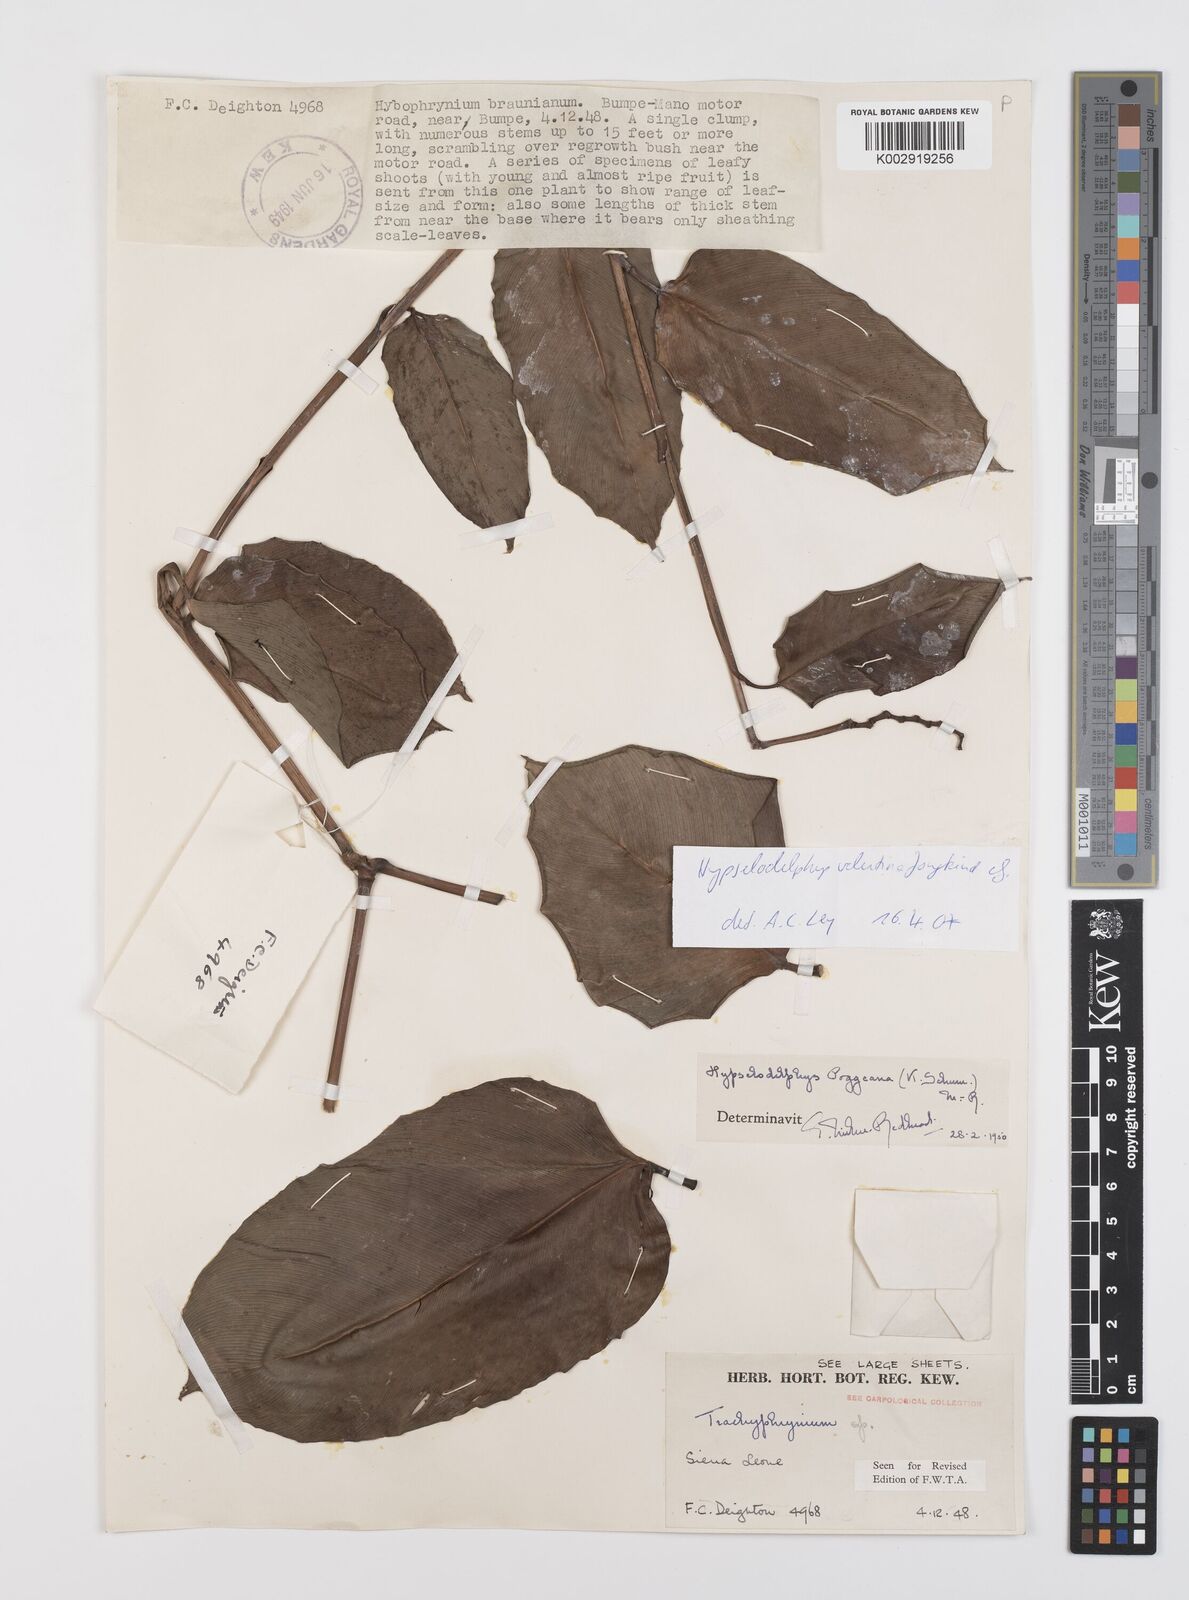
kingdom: Plantae
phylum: Tracheophyta
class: Liliopsida
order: Zingiberales
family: Marantaceae
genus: Hypselodelphys
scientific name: Hypselodelphys velutina
